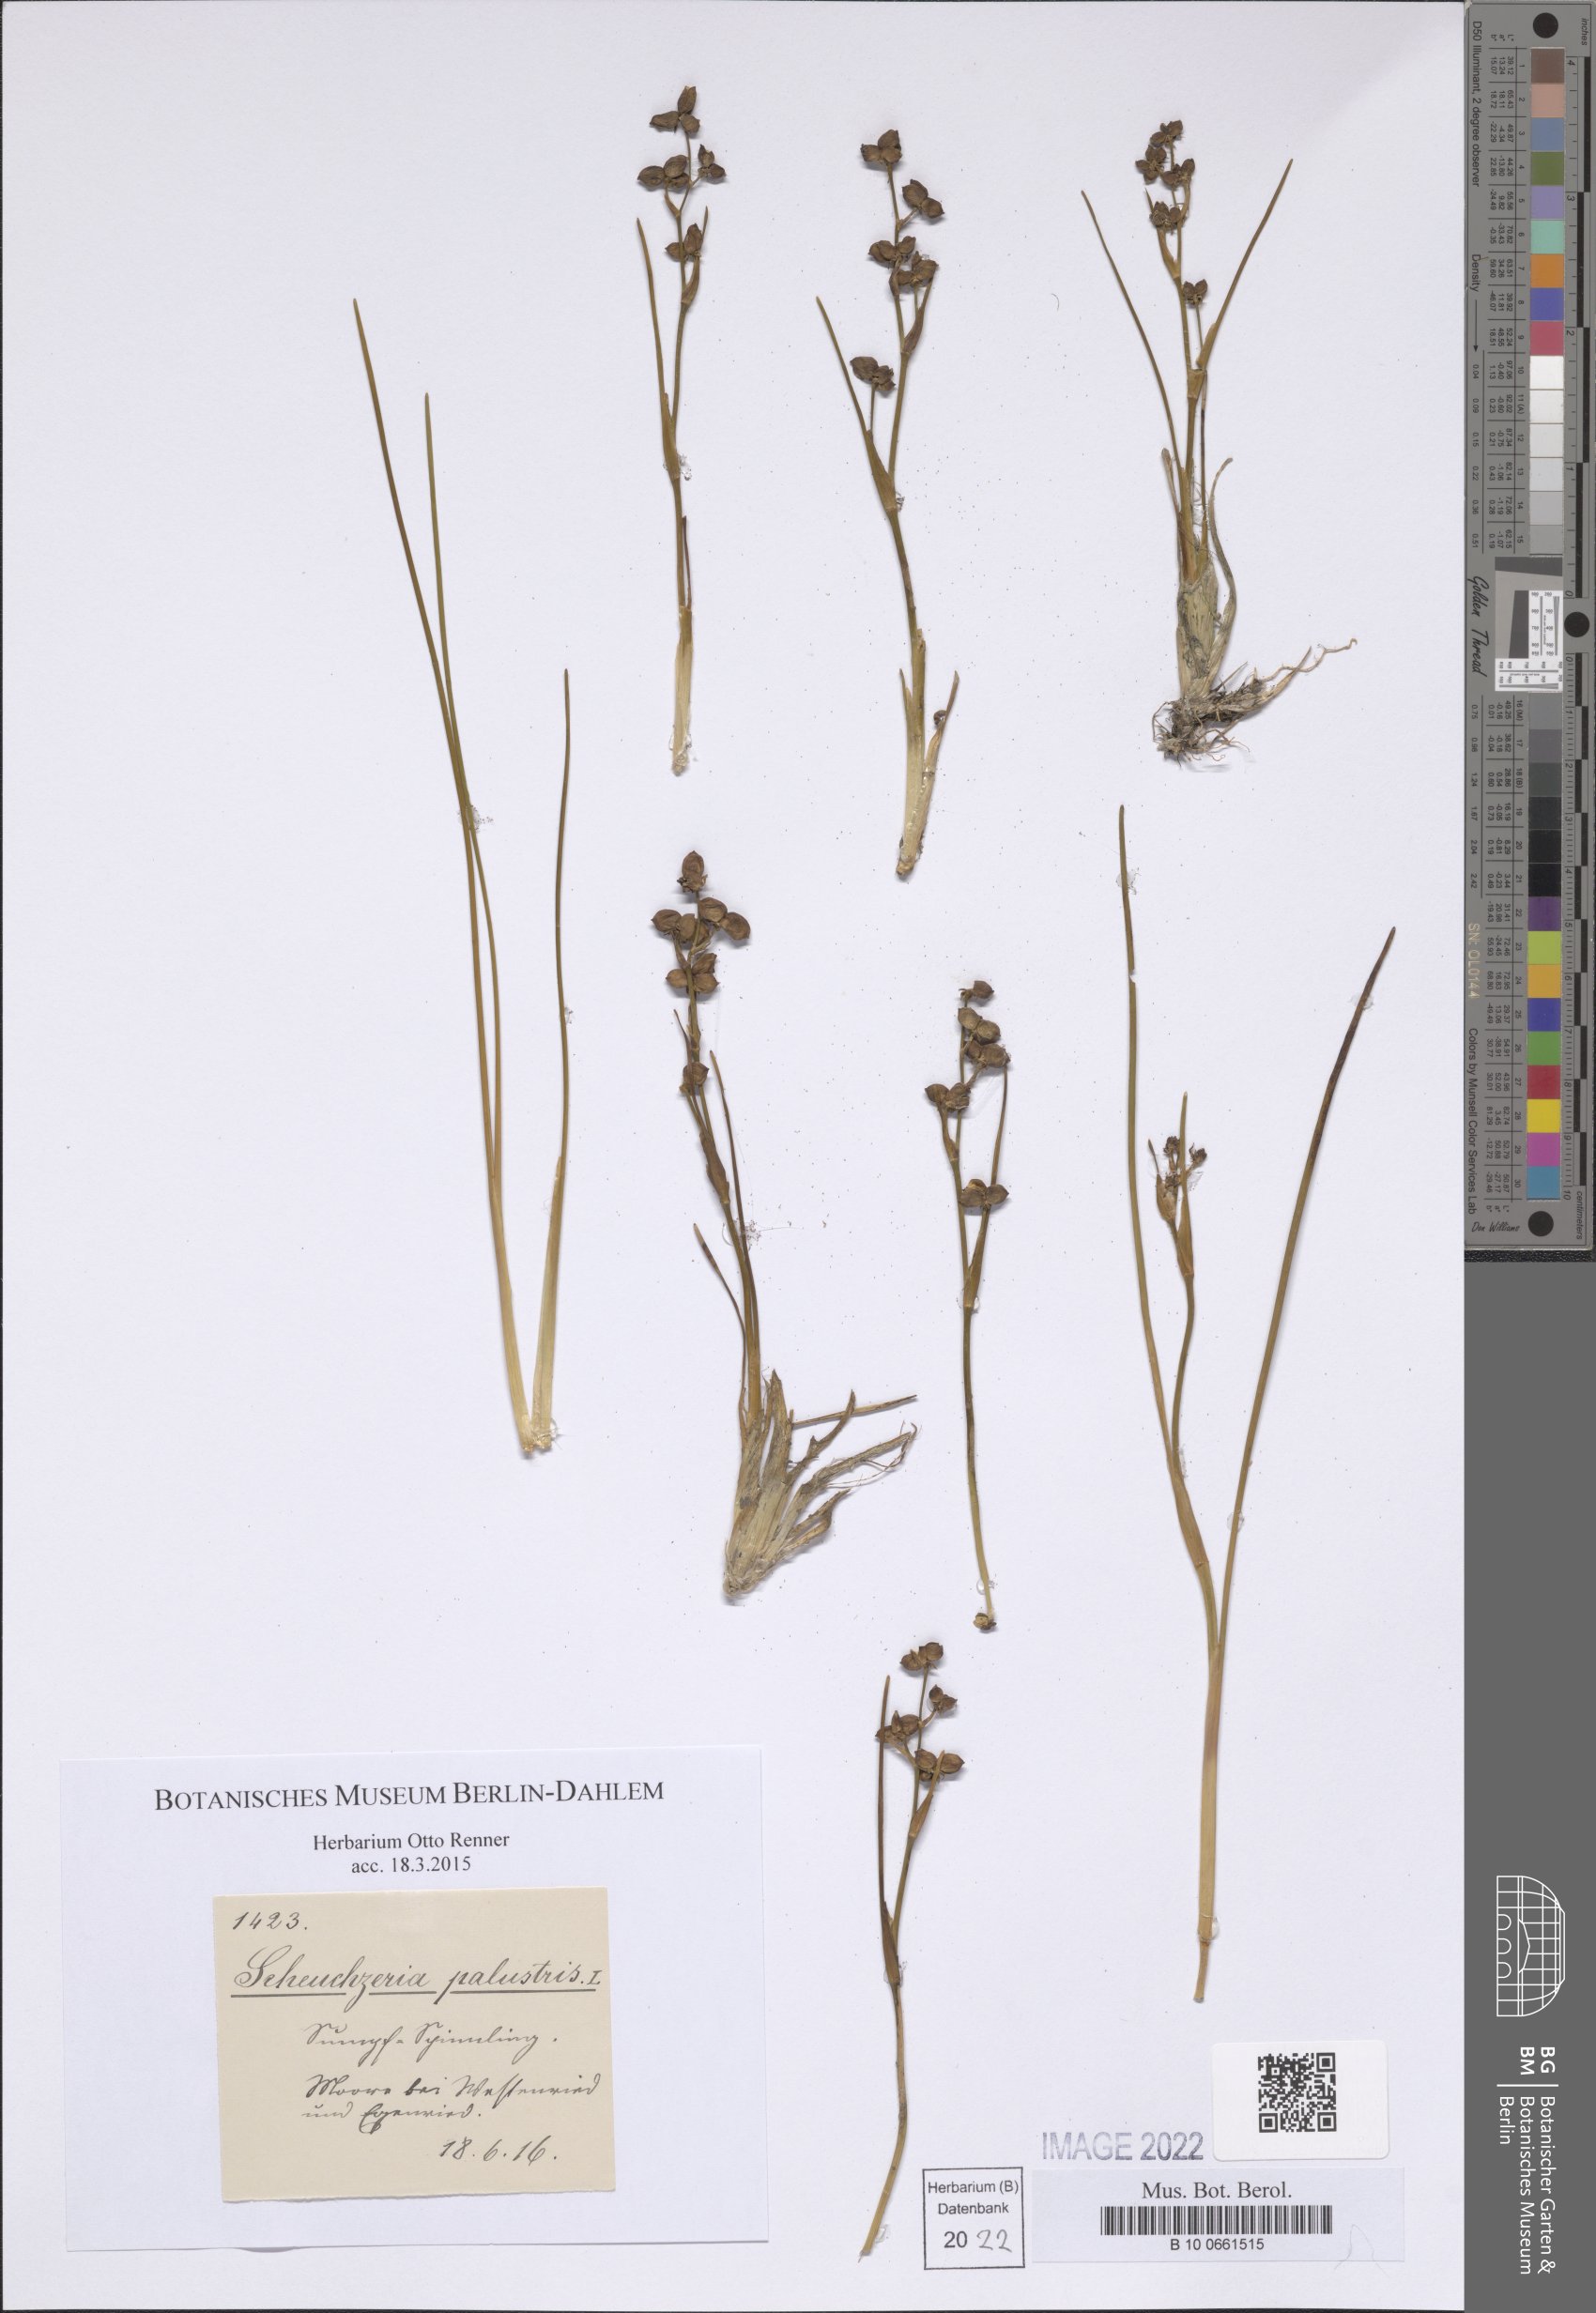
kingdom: Plantae
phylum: Tracheophyta
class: Liliopsida
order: Alismatales
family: Scheuchzeriaceae
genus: Scheuchzeria
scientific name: Scheuchzeria palustris
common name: Rannoch-rush
